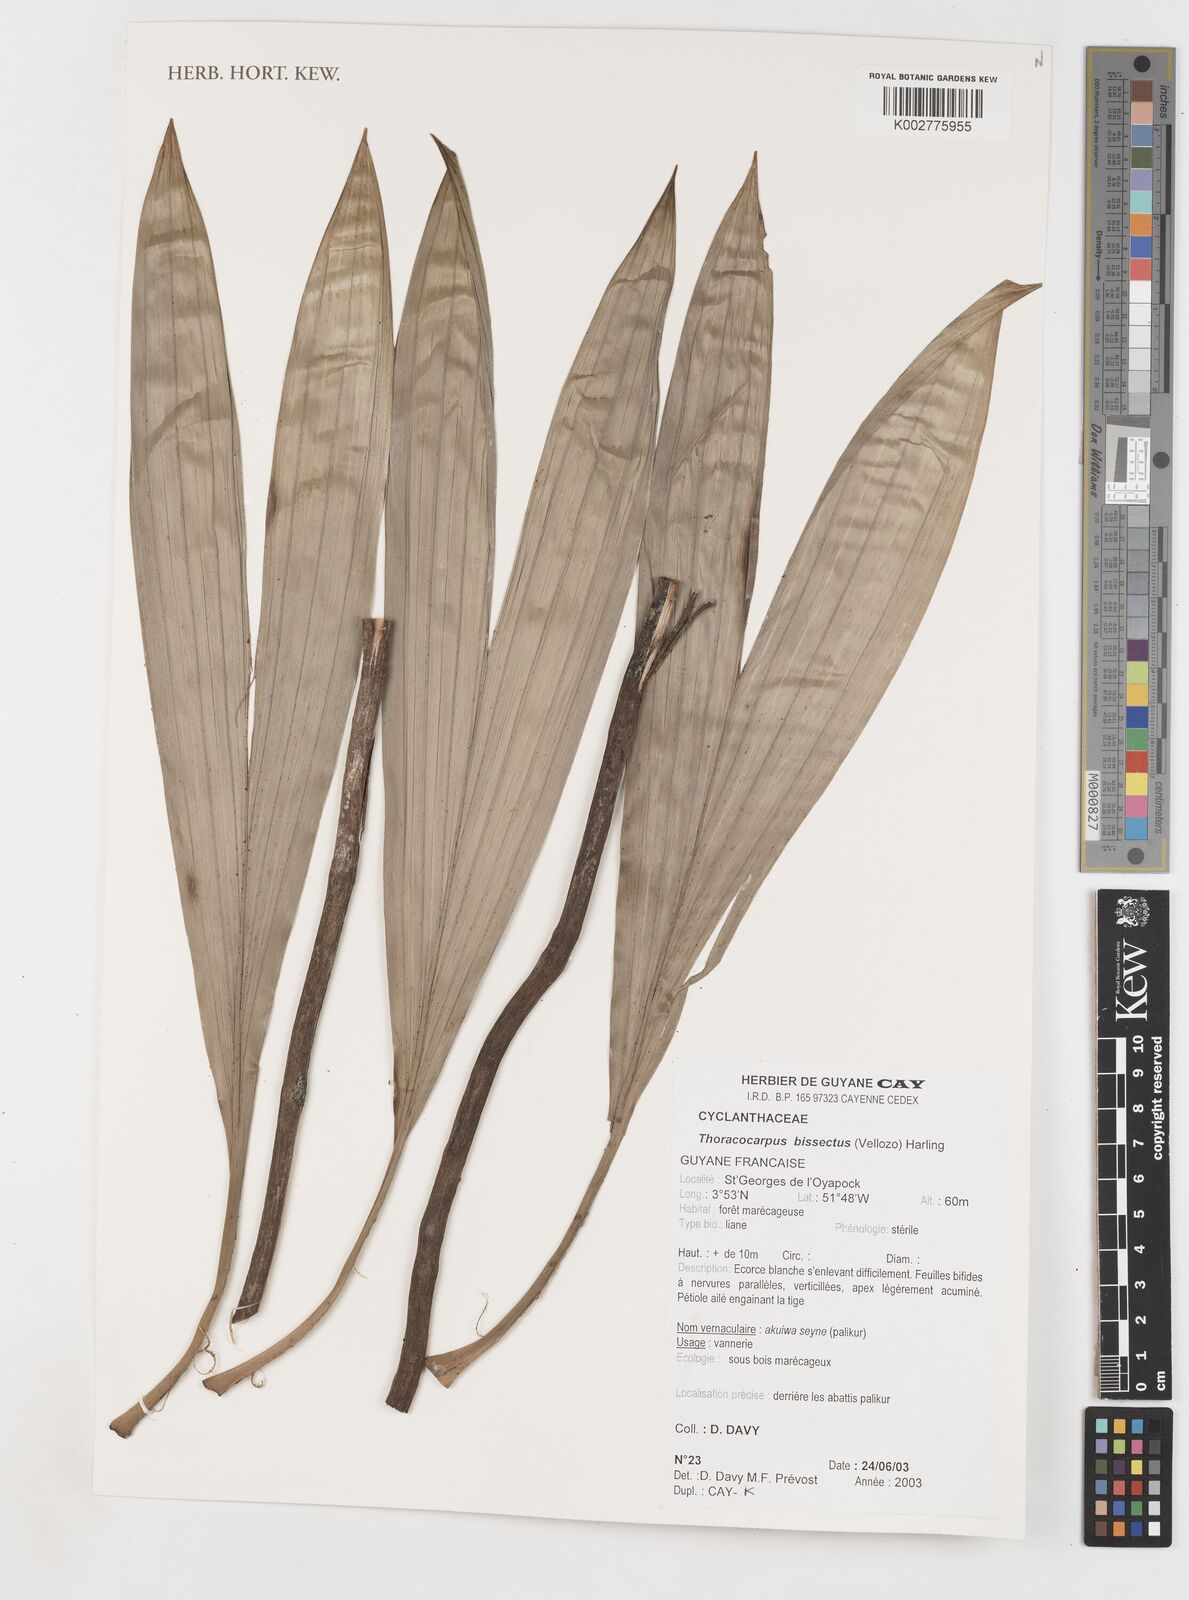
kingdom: Plantae
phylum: Tracheophyta
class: Liliopsida
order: Pandanales
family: Cyclanthaceae
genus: Thoracocarpus
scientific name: Thoracocarpus bissectus
